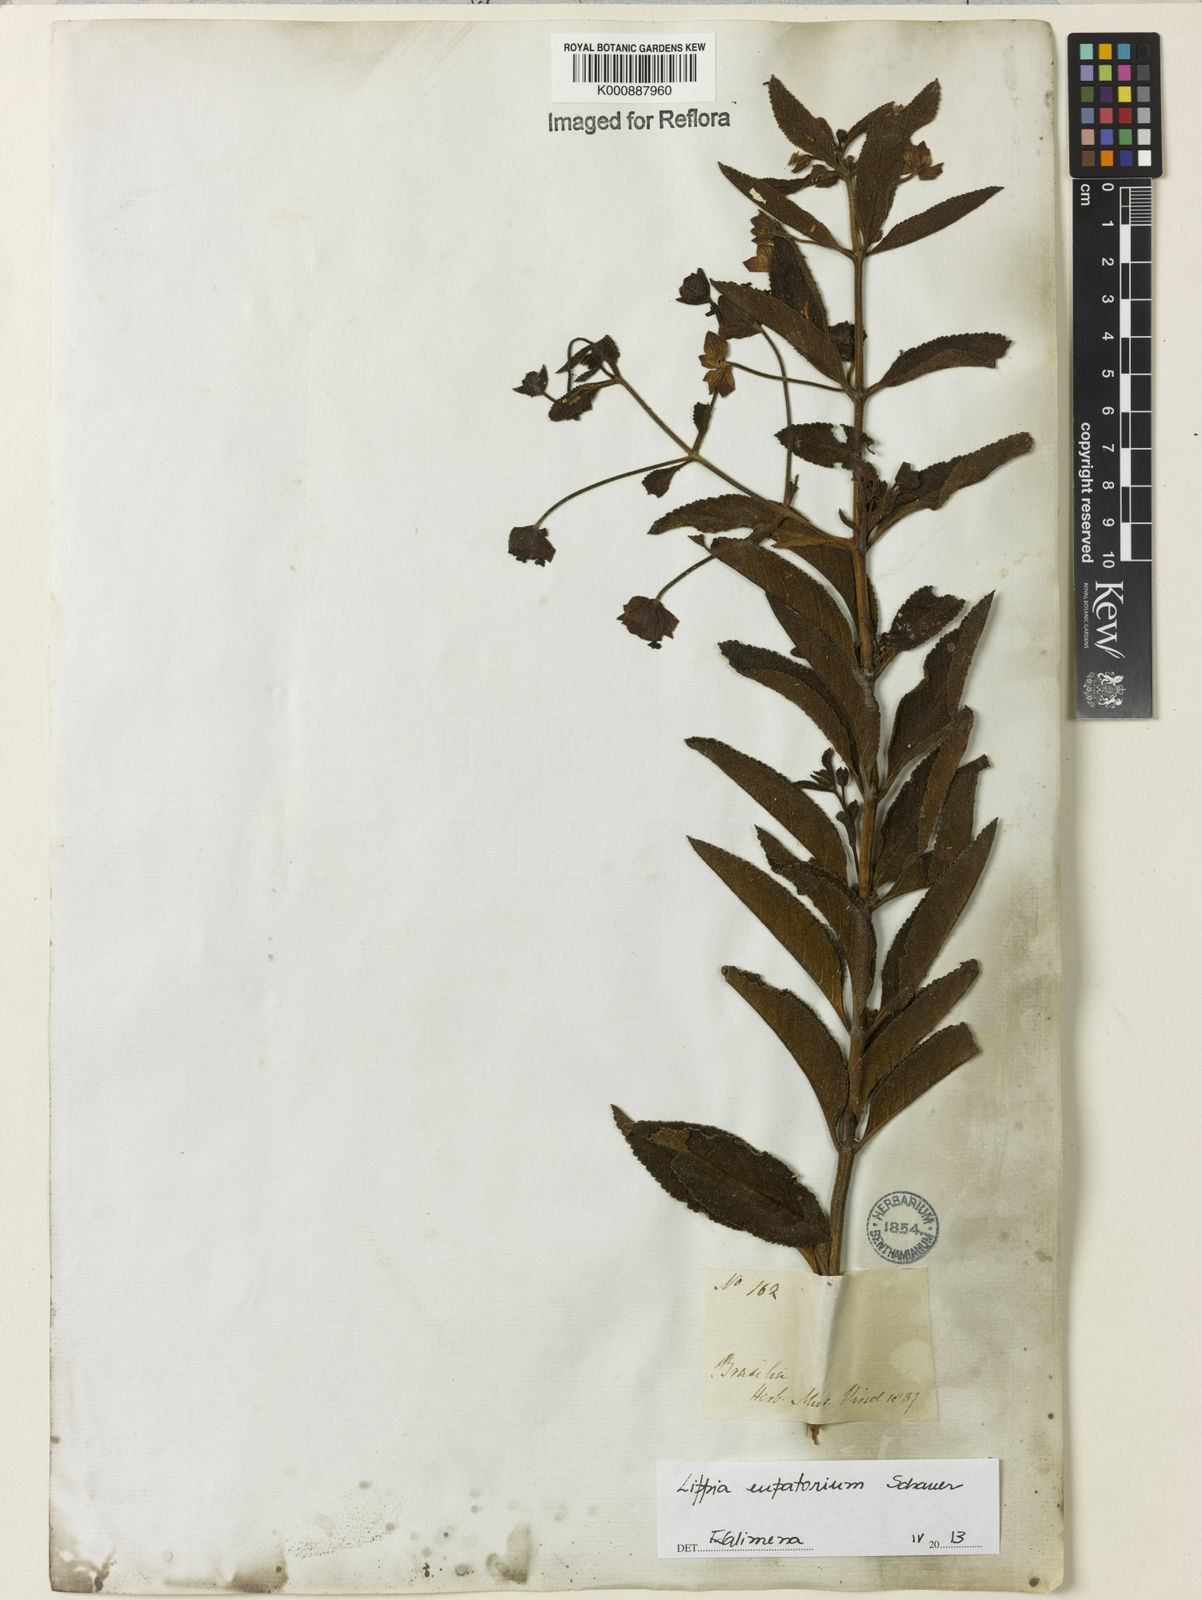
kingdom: Plantae
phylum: Tracheophyta
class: Magnoliopsida
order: Lamiales
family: Verbenaceae
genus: Lippia
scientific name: Lippia eupatorium
